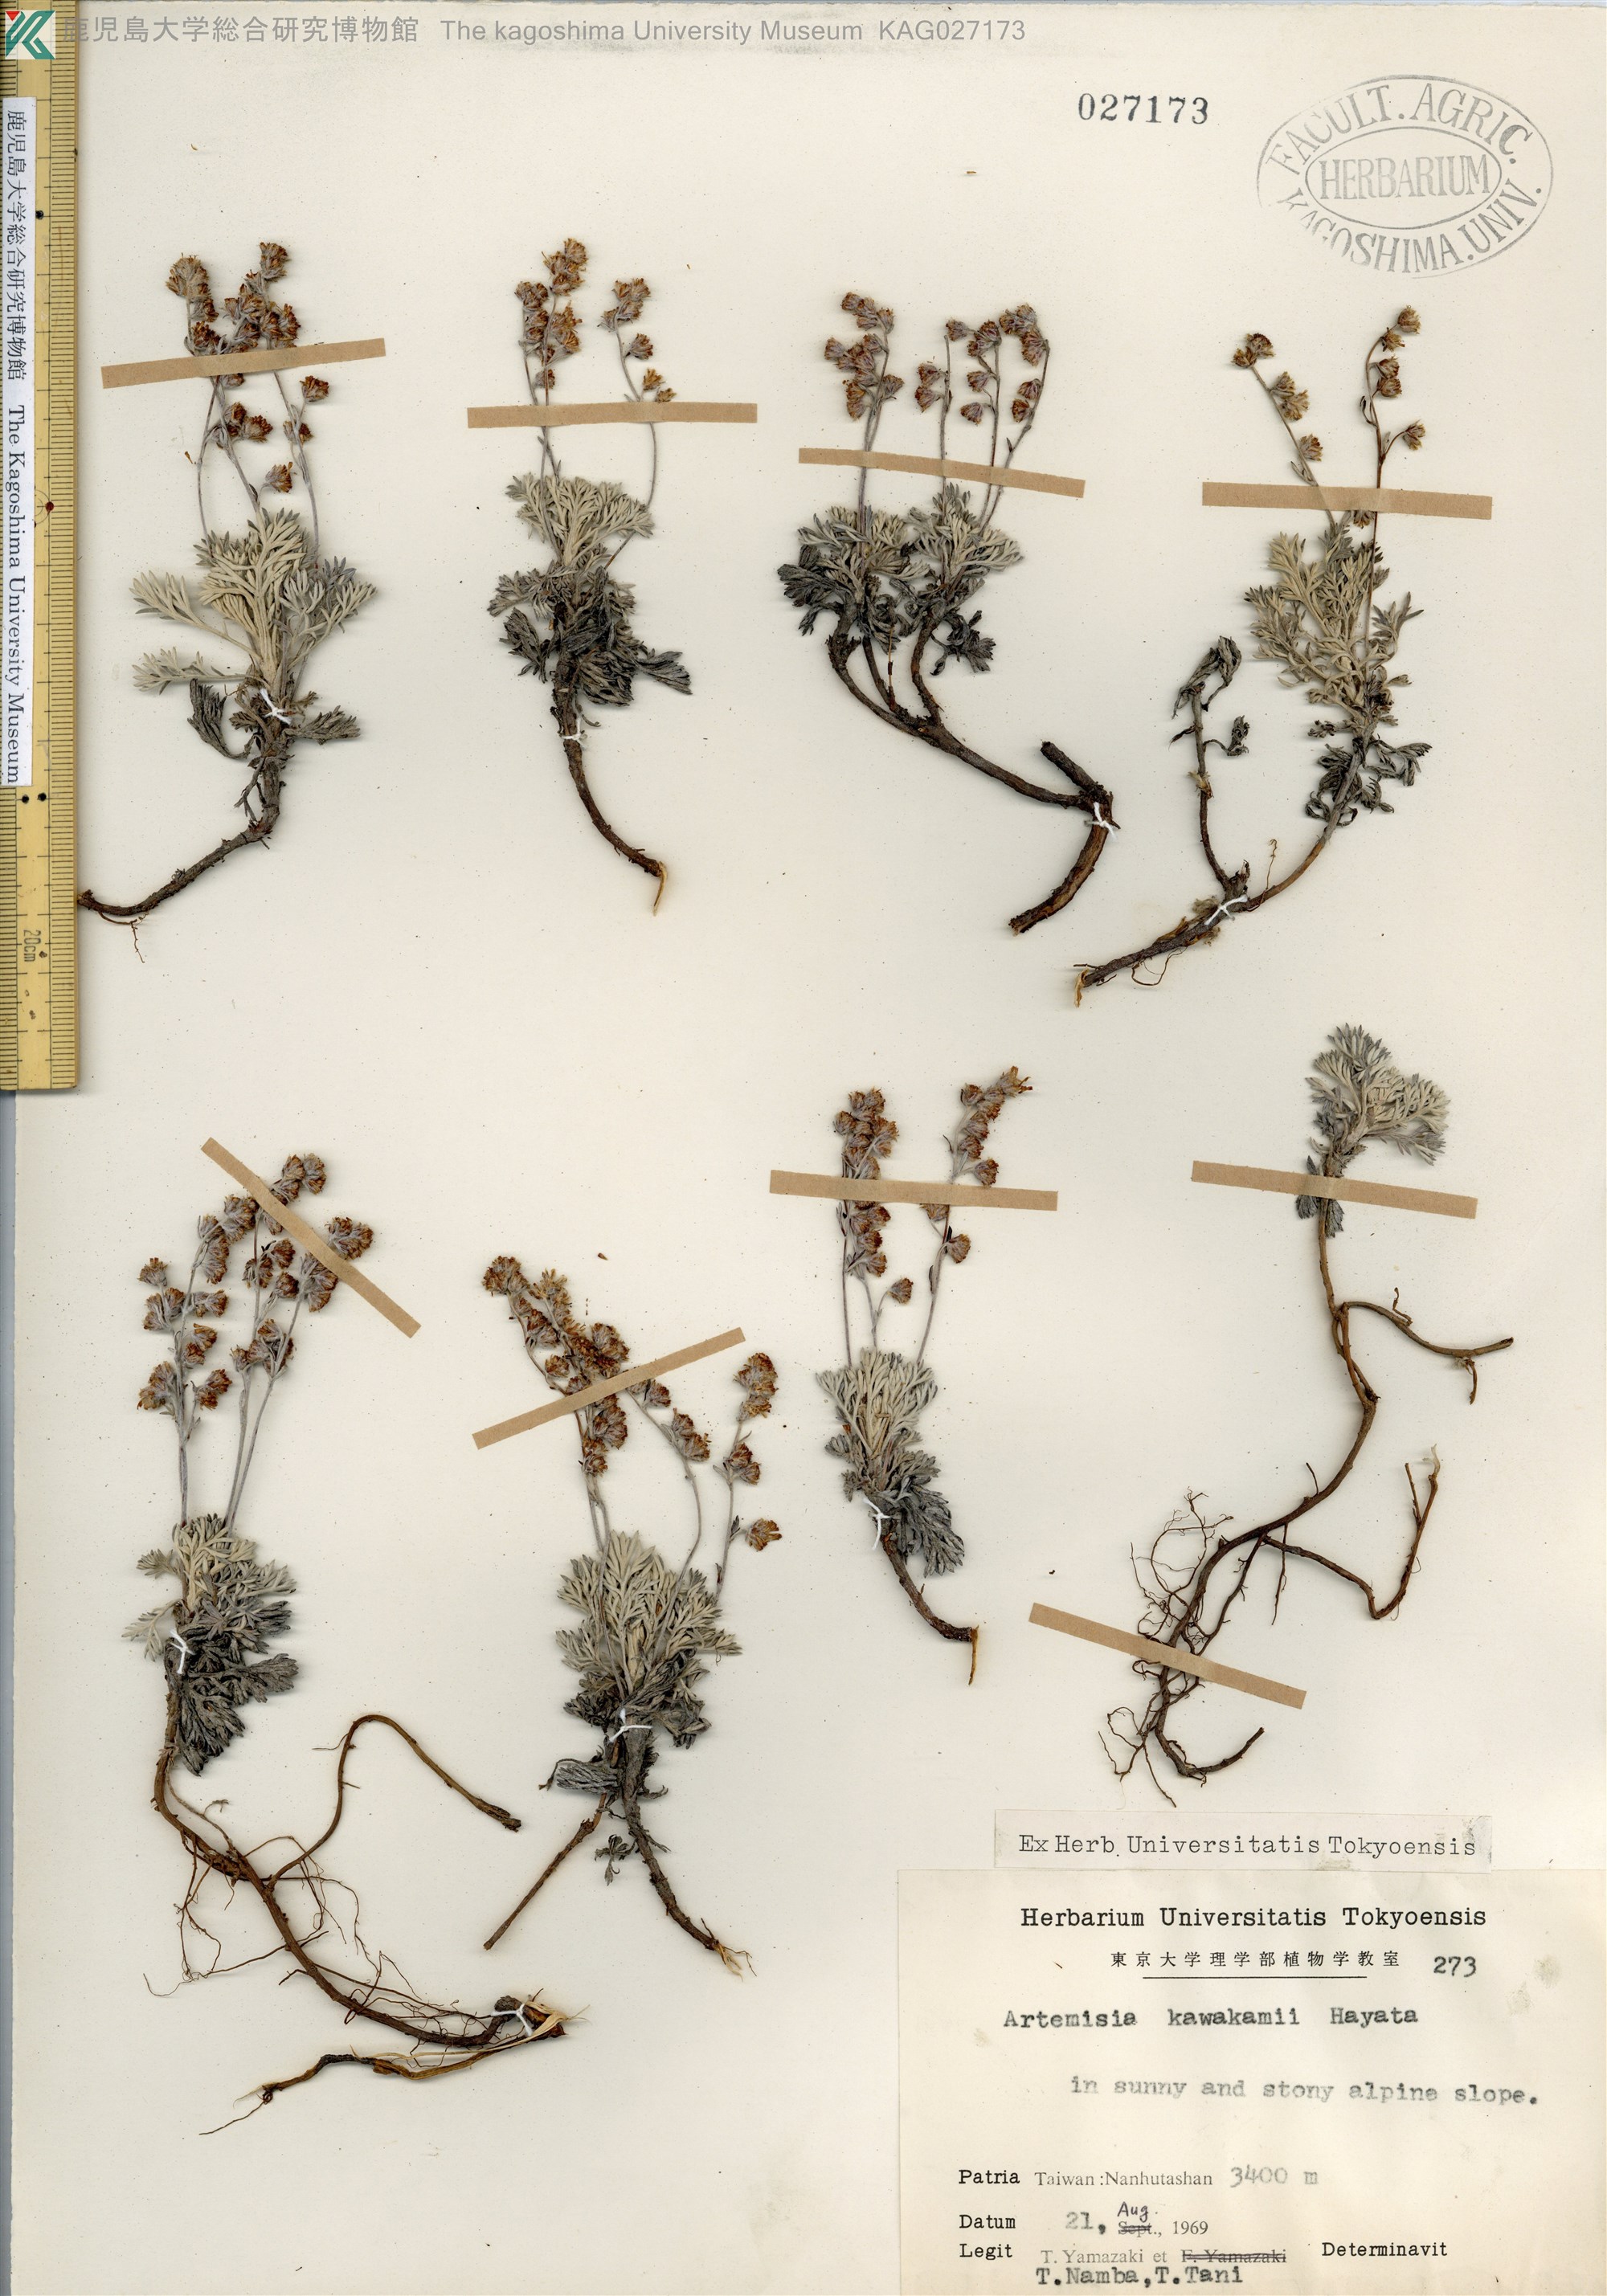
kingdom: Plantae
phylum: Tracheophyta
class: Magnoliopsida
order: Asterales
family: Asteraceae
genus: Artemisia
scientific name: Artemisia kawakamii
